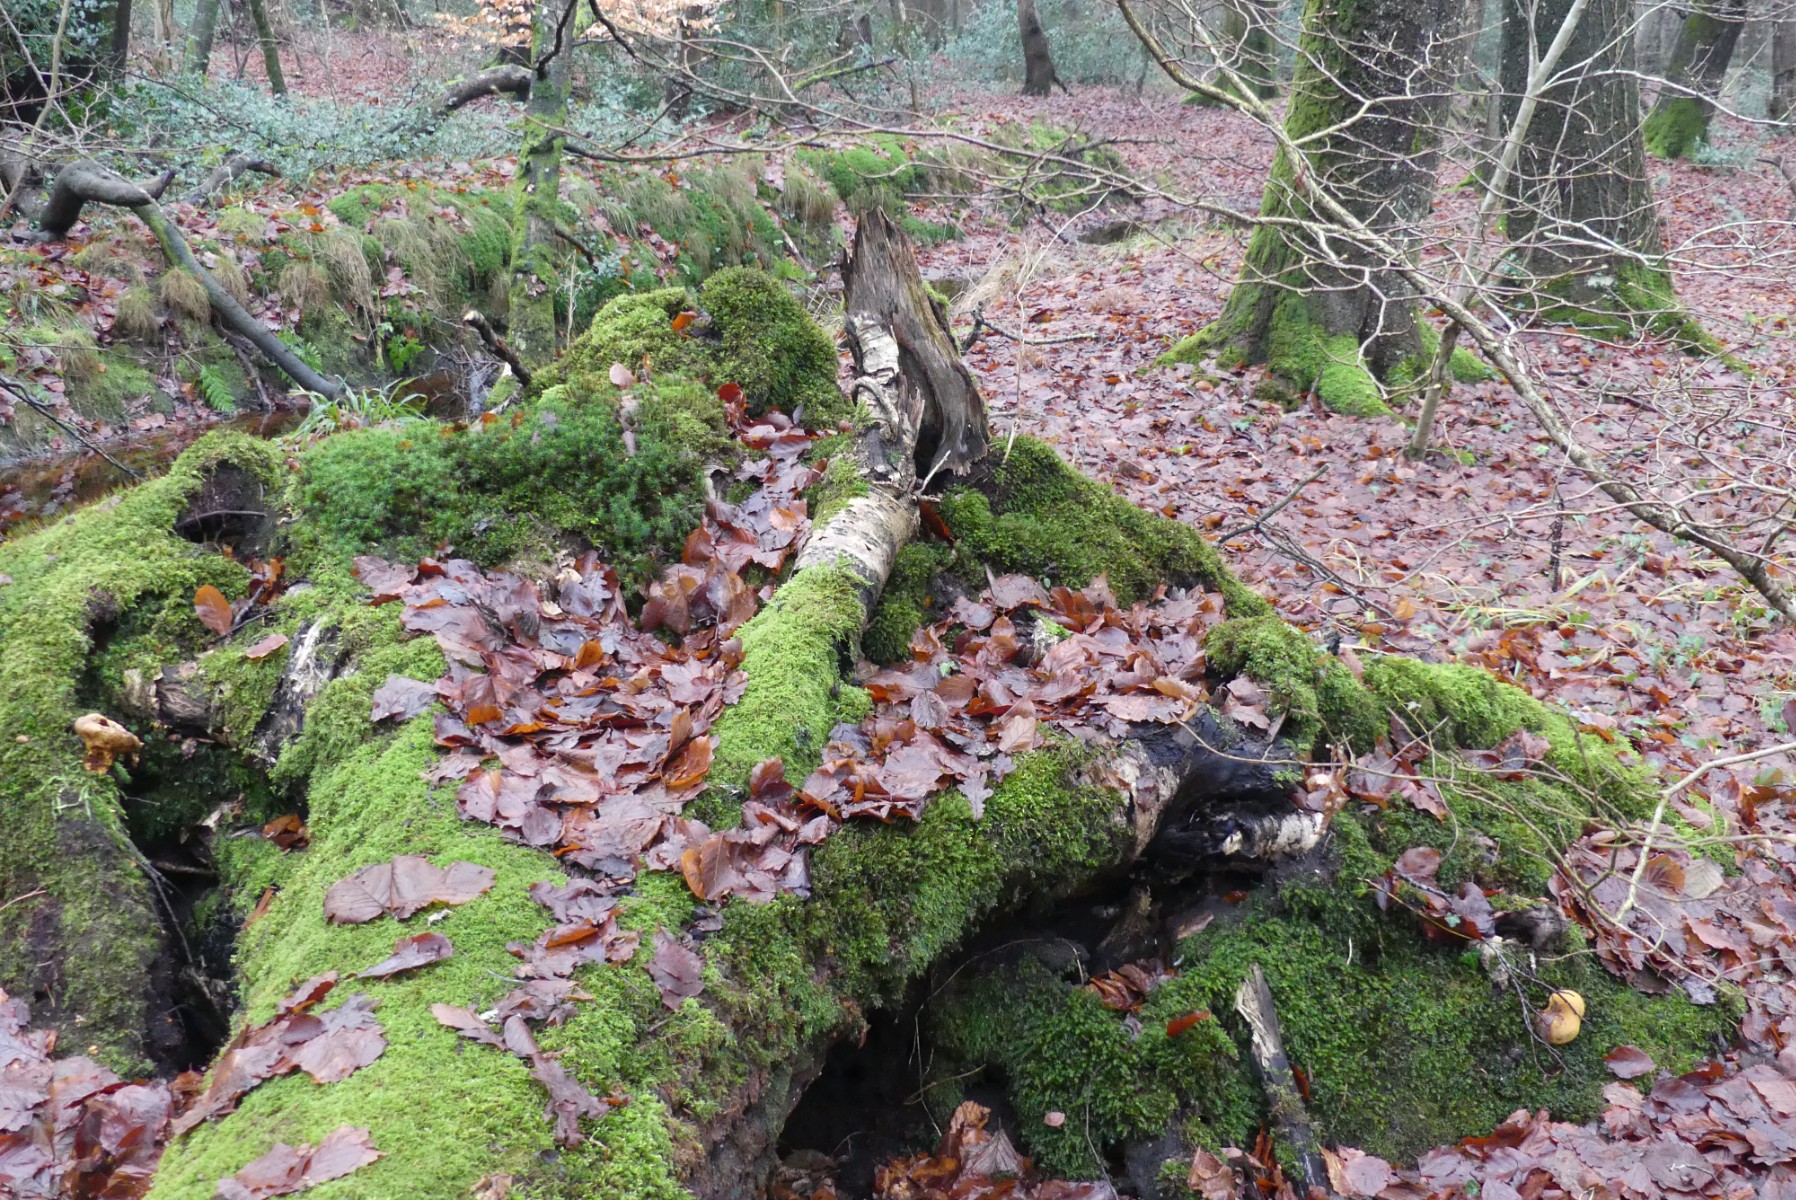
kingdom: Fungi
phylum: Basidiomycota
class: Agaricomycetes
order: Polyporales
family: Fomitopsidaceae
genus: Fomitopsis
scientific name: Fomitopsis pinicola
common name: randbæltet hovporesvamp
